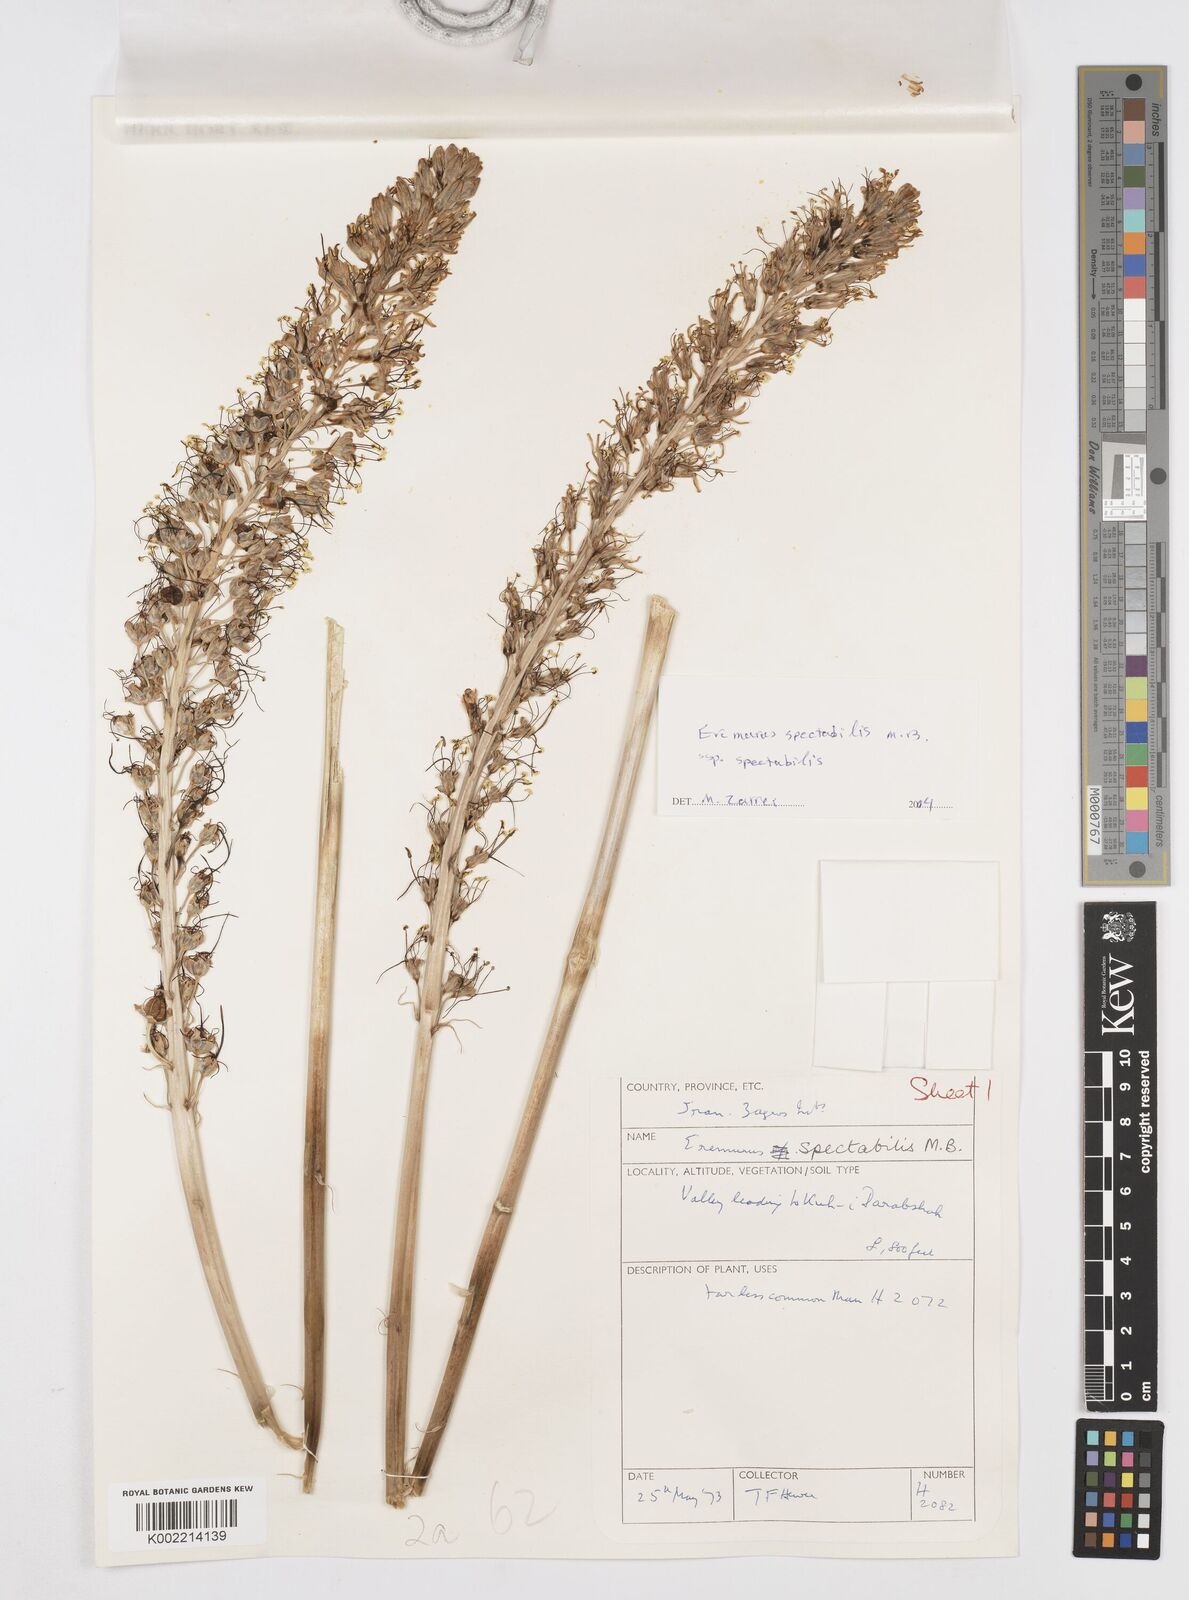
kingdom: Plantae
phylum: Tracheophyta
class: Liliopsida
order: Asparagales
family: Asphodelaceae
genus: Eremurus
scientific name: Eremurus spectabilis
